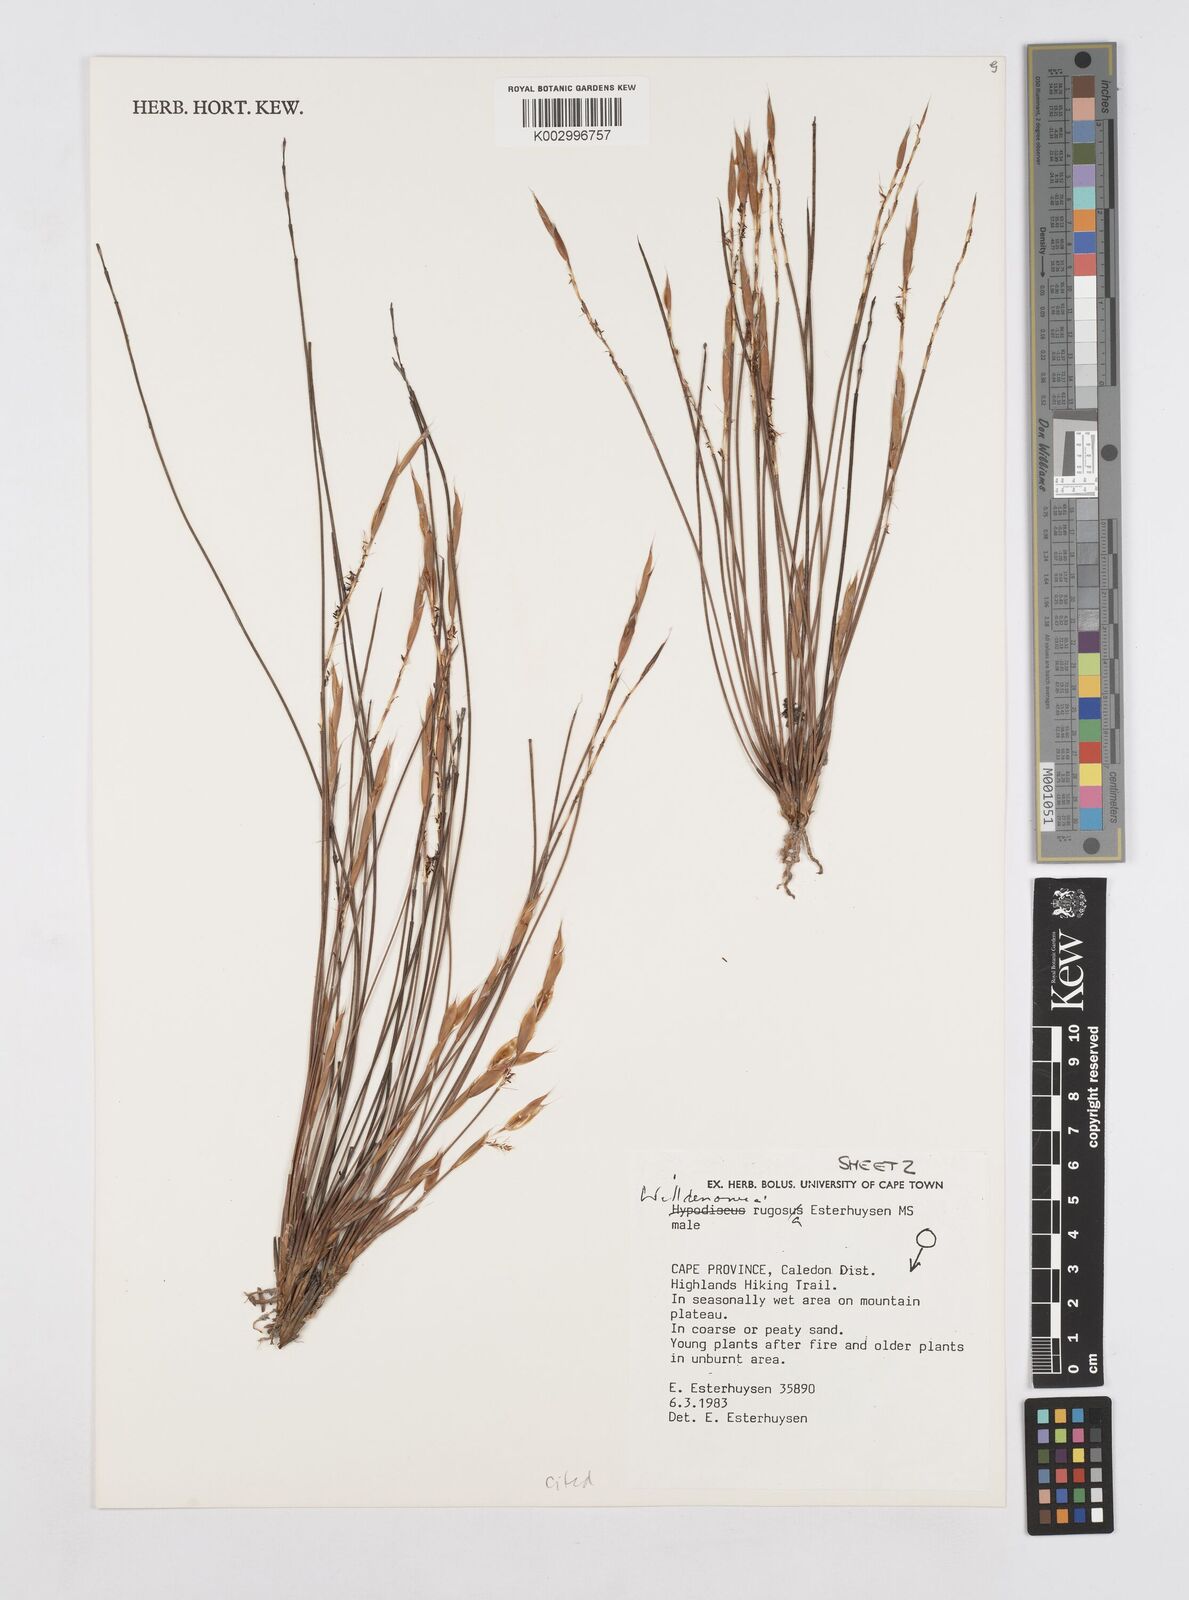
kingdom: Plantae
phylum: Tracheophyta
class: Liliopsida
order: Poales
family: Restionaceae
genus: Willdenowia
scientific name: Willdenowia rugosa
